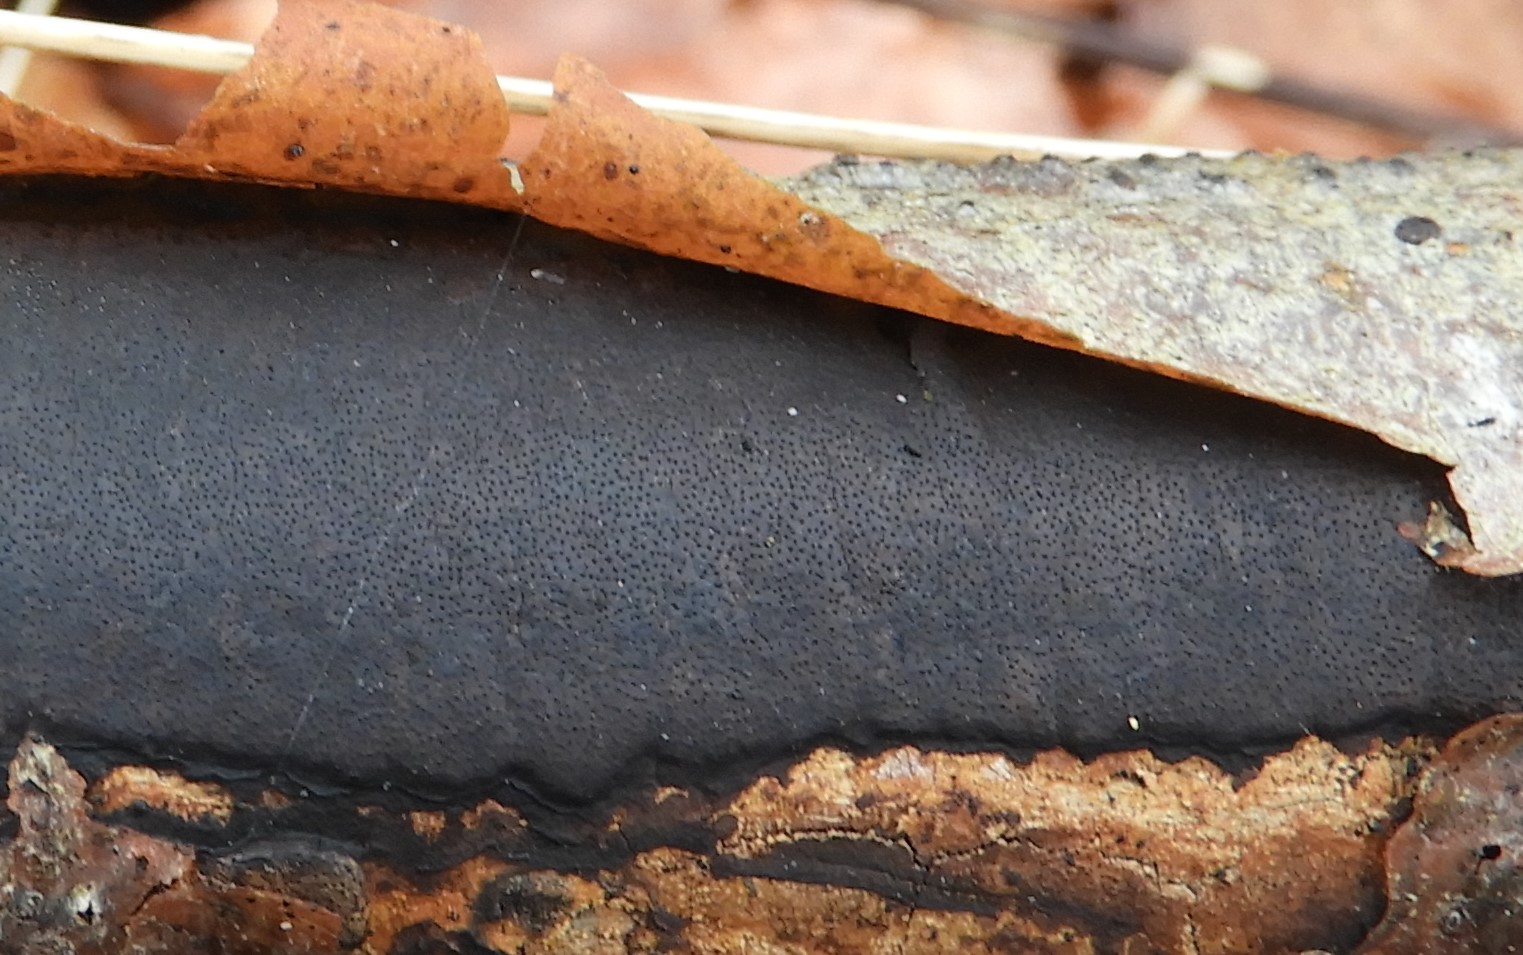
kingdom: Fungi
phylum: Ascomycota
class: Sordariomycetes
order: Xylariales
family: Diatrypaceae
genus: Diatrype
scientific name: Diatrype decorticata
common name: barksprænger-kulskorpe
